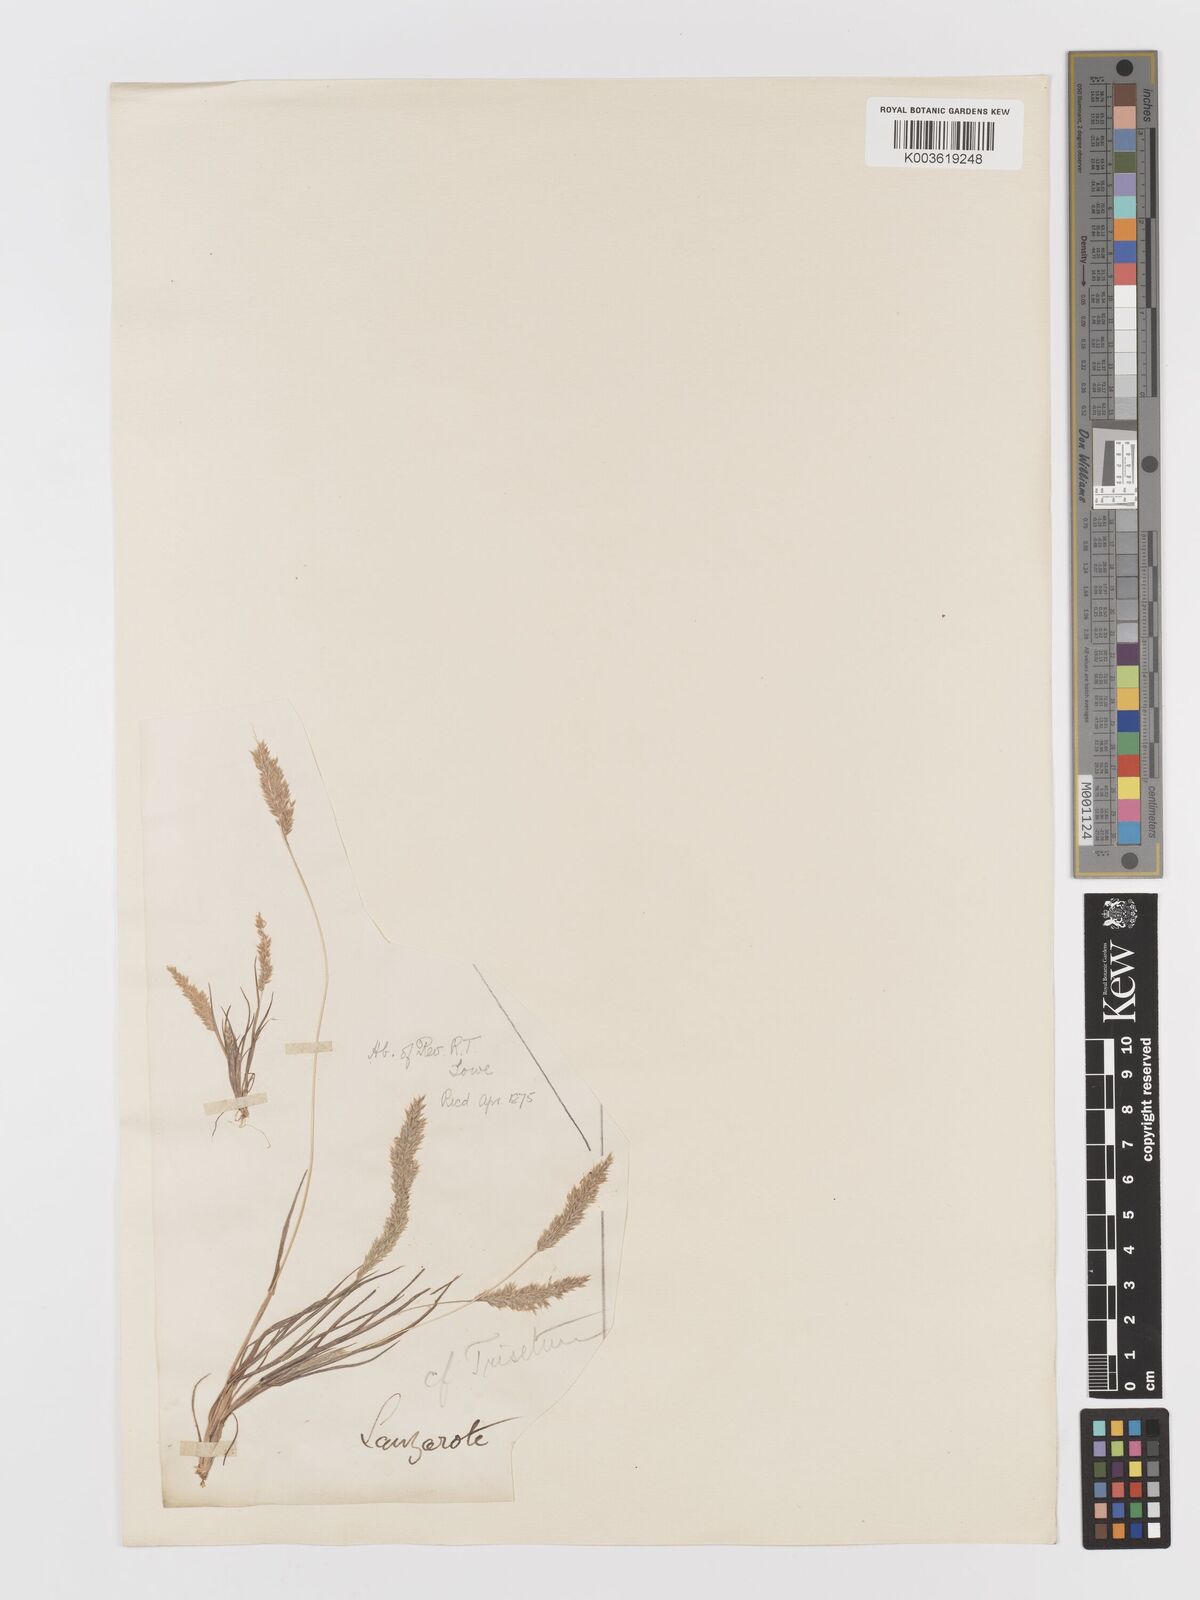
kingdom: Plantae
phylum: Tracheophyta
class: Liliopsida
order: Poales
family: Poaceae
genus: Rostraria
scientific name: Rostraria pumila
